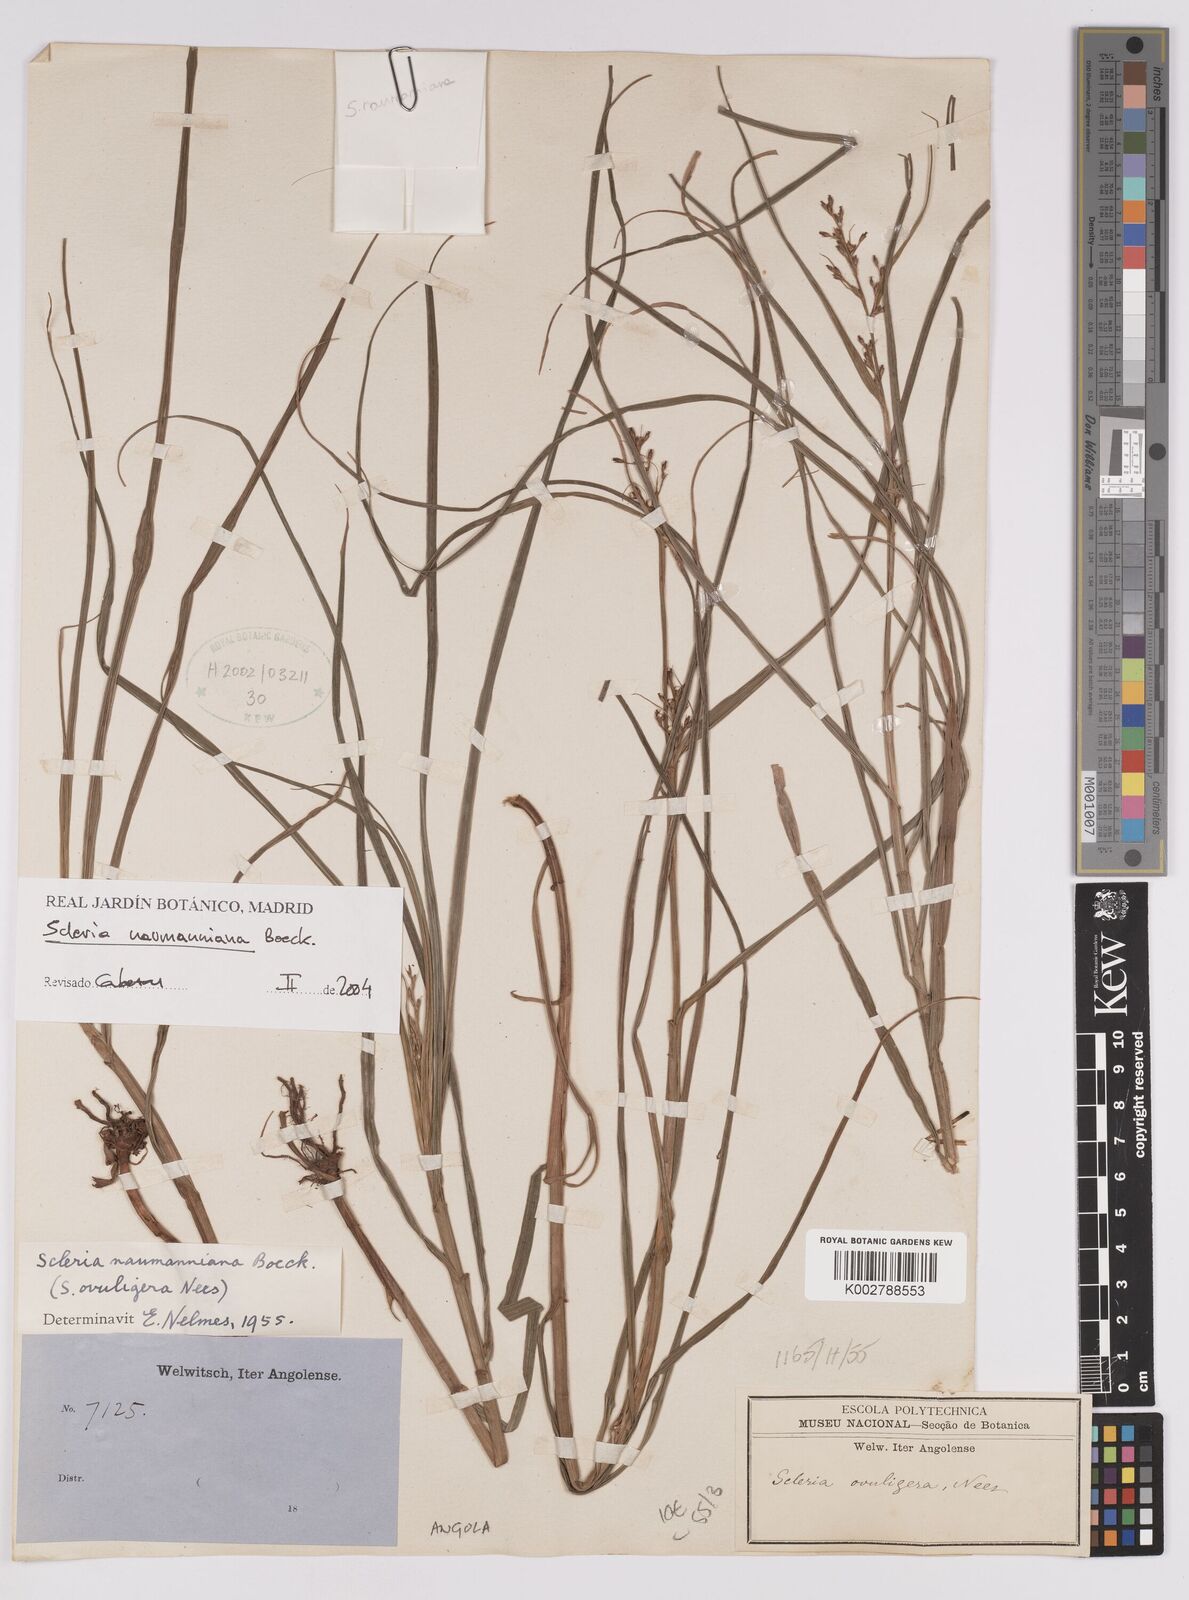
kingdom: Plantae
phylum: Tracheophyta
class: Liliopsida
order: Poales
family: Cyperaceae
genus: Scleria
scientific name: Scleria naumanniana
